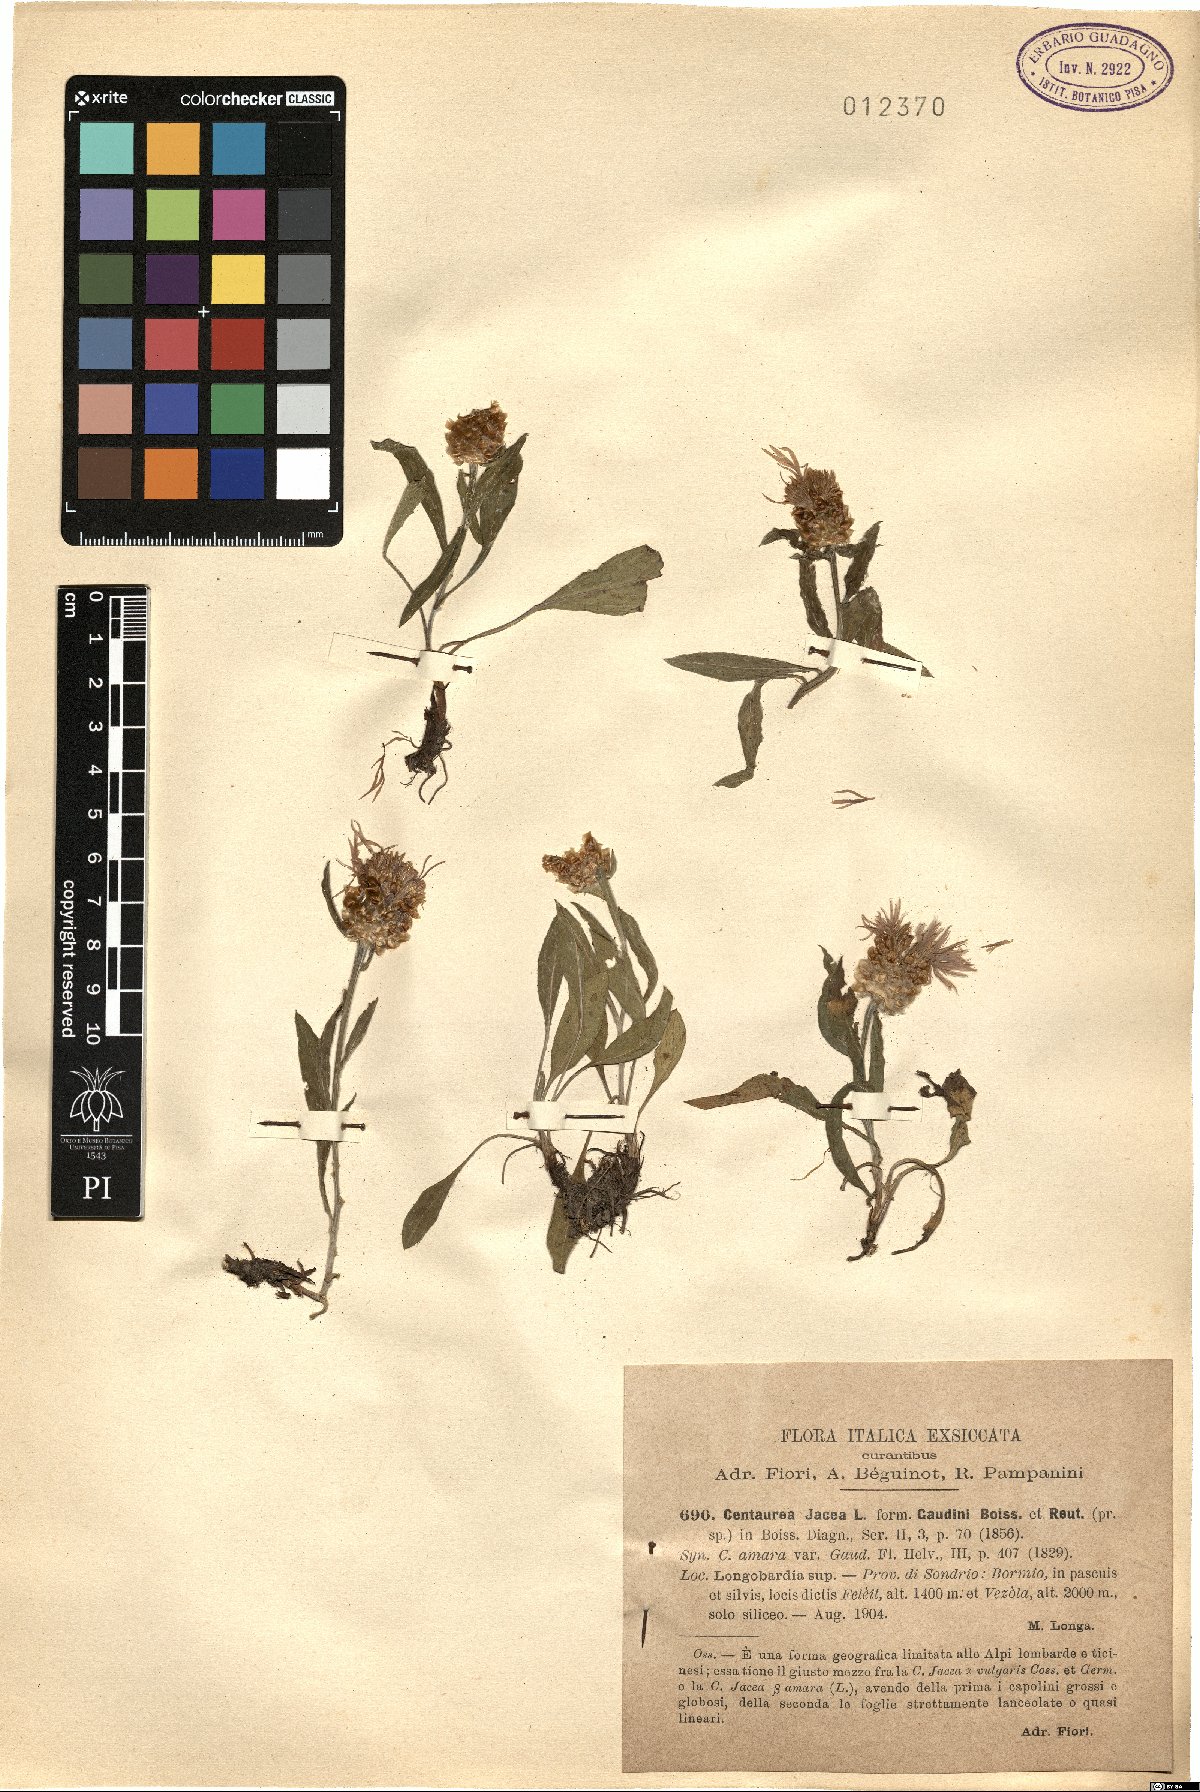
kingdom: Plantae
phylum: Tracheophyta
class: Magnoliopsida
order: Asterales
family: Asteraceae
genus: Centaurea
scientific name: Centaurea jacea
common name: Brown knapweed
